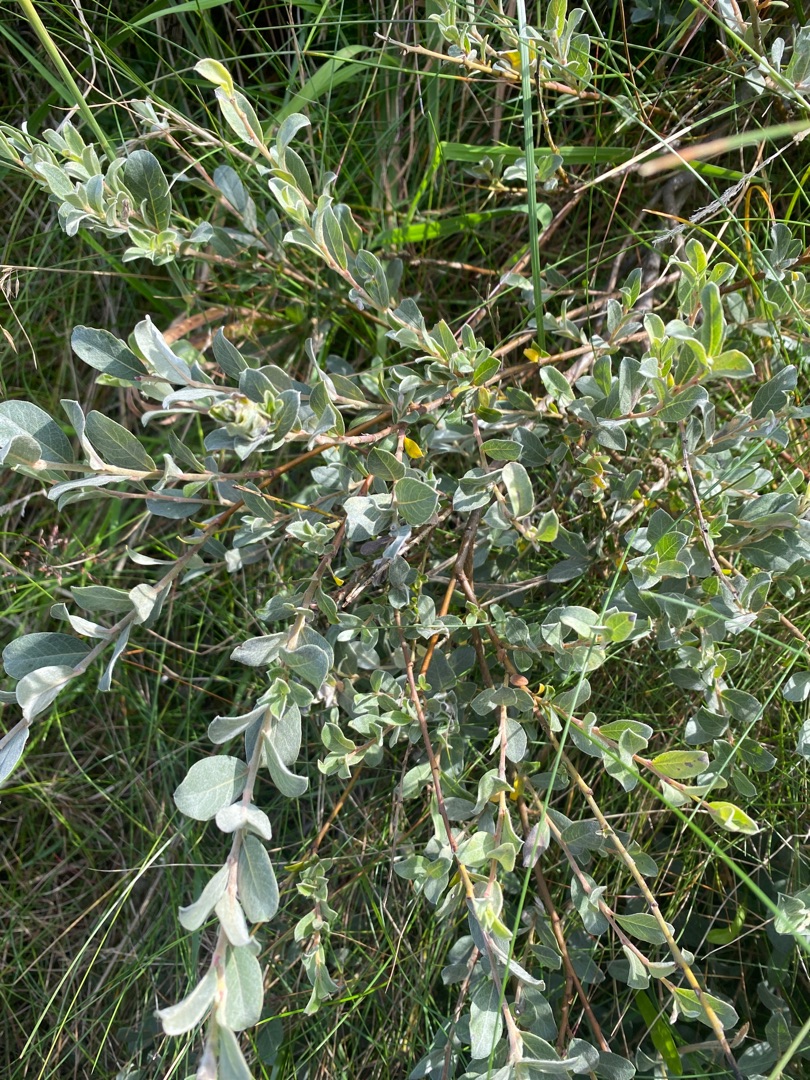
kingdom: Plantae
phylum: Tracheophyta
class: Magnoliopsida
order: Malpighiales
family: Salicaceae
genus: Salix
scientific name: Salix repens
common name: Gråris
